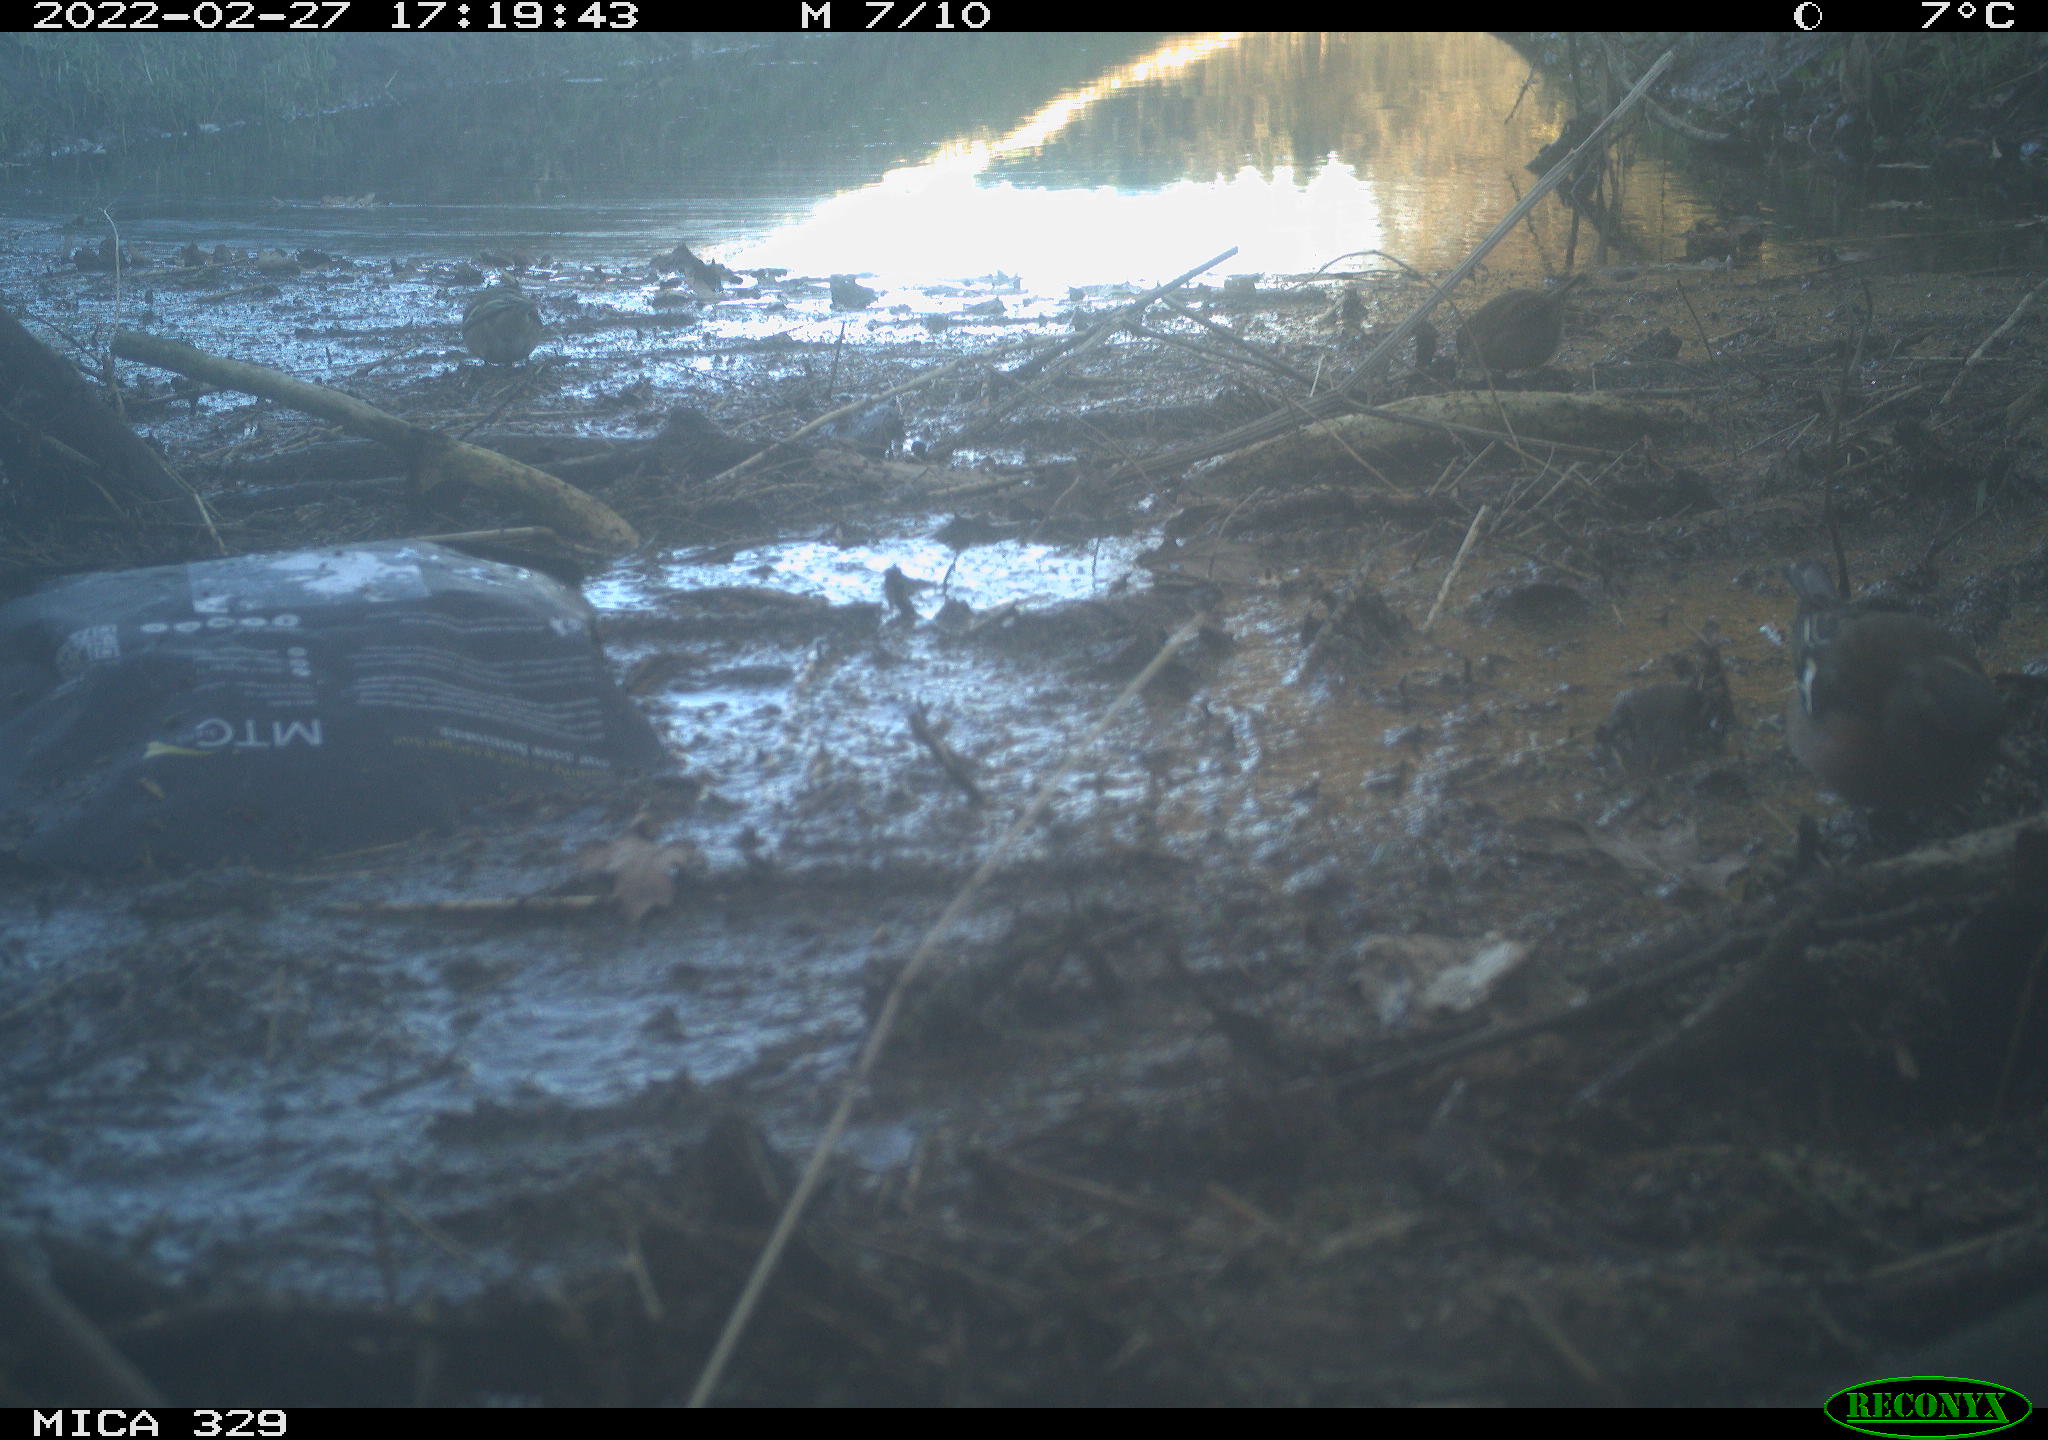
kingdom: Animalia
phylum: Chordata
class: Aves
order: Passeriformes
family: Fringillidae
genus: Fringilla
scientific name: Fringilla coelebs
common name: Common chaffinch
